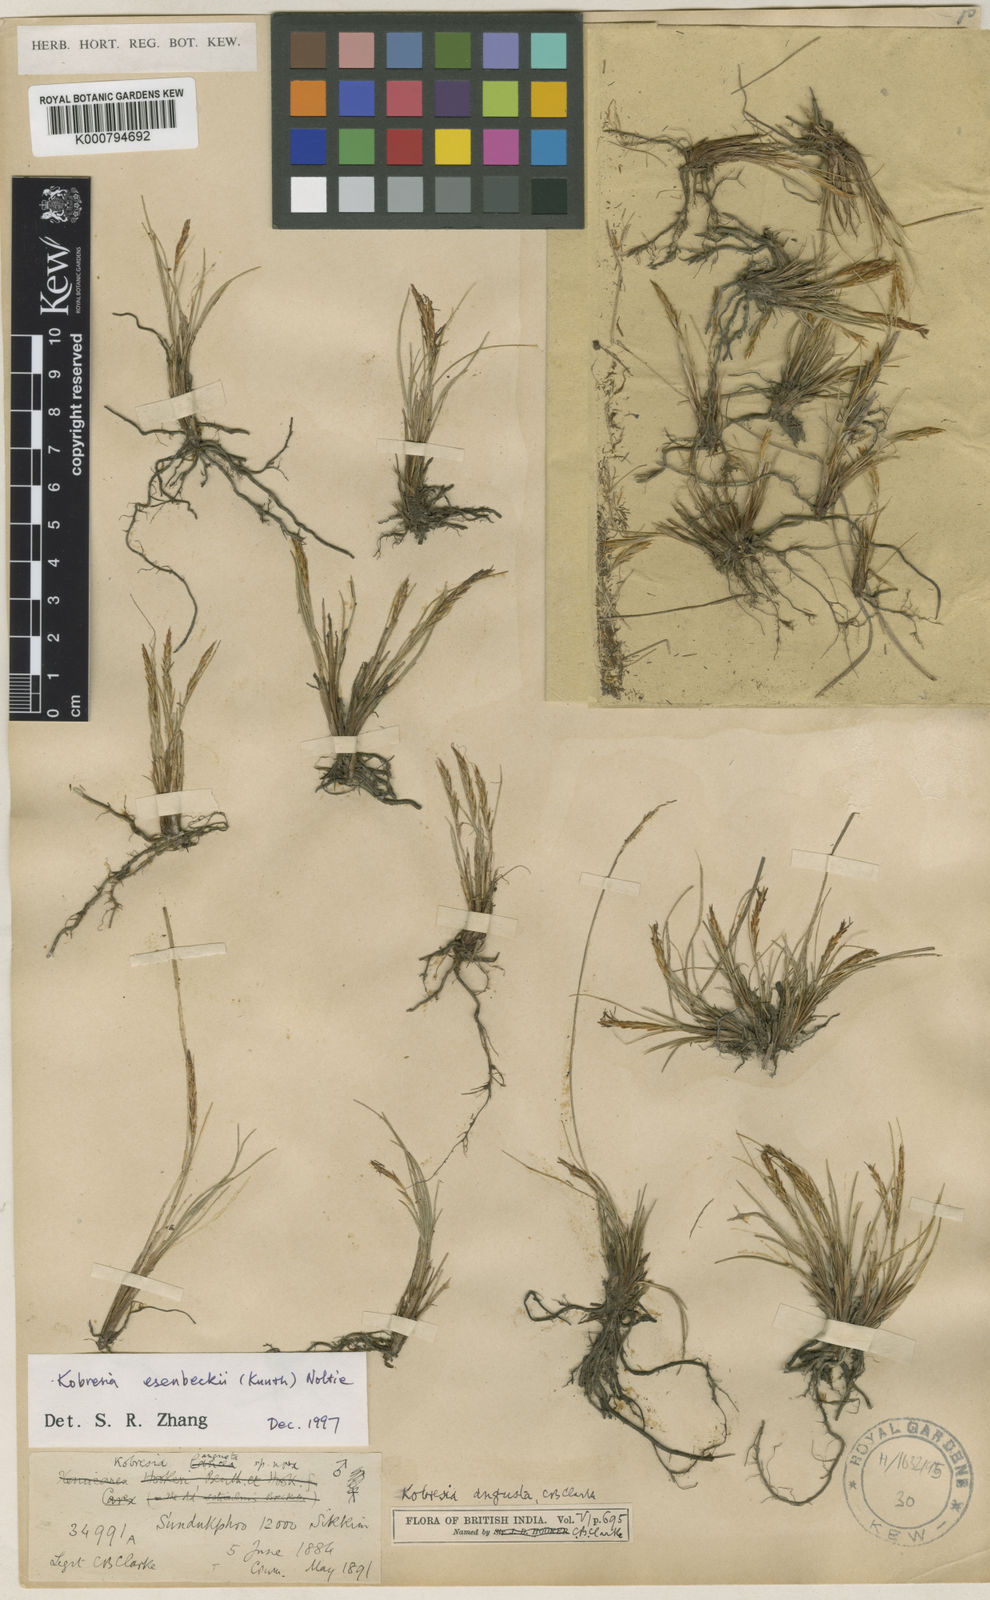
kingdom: Plantae
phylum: Tracheophyta
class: Liliopsida
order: Poales
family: Cyperaceae
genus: Carex
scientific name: Carex esenbeckii
